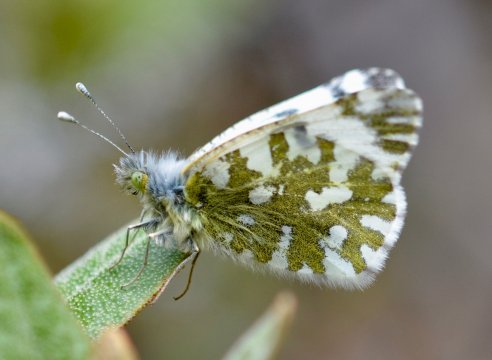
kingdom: Animalia
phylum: Arthropoda
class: Insecta
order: Lepidoptera
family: Pieridae
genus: Euchloe
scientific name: Euchloe ausonides
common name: Large Marble
